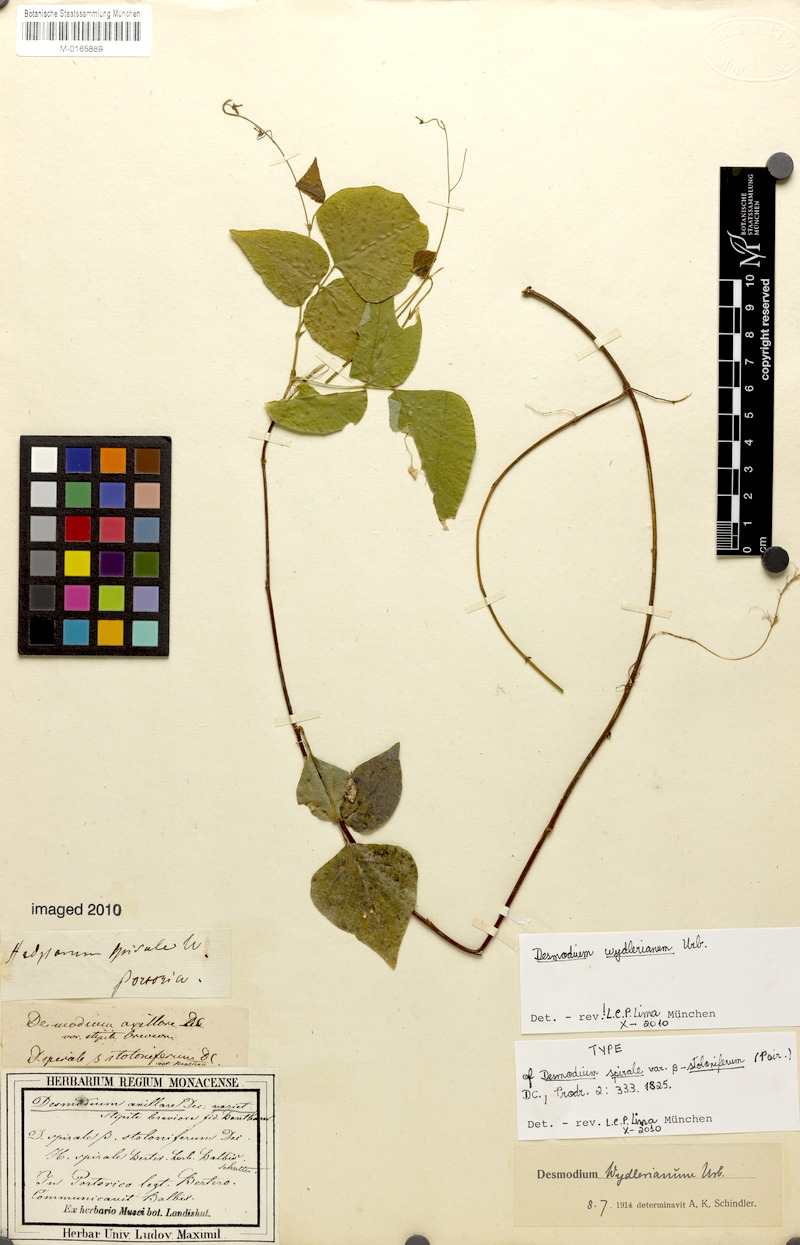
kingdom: Plantae
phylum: Tracheophyta
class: Magnoliopsida
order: Fabales
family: Fabaceae
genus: Desmodium
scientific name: Desmodium wydlerianum
